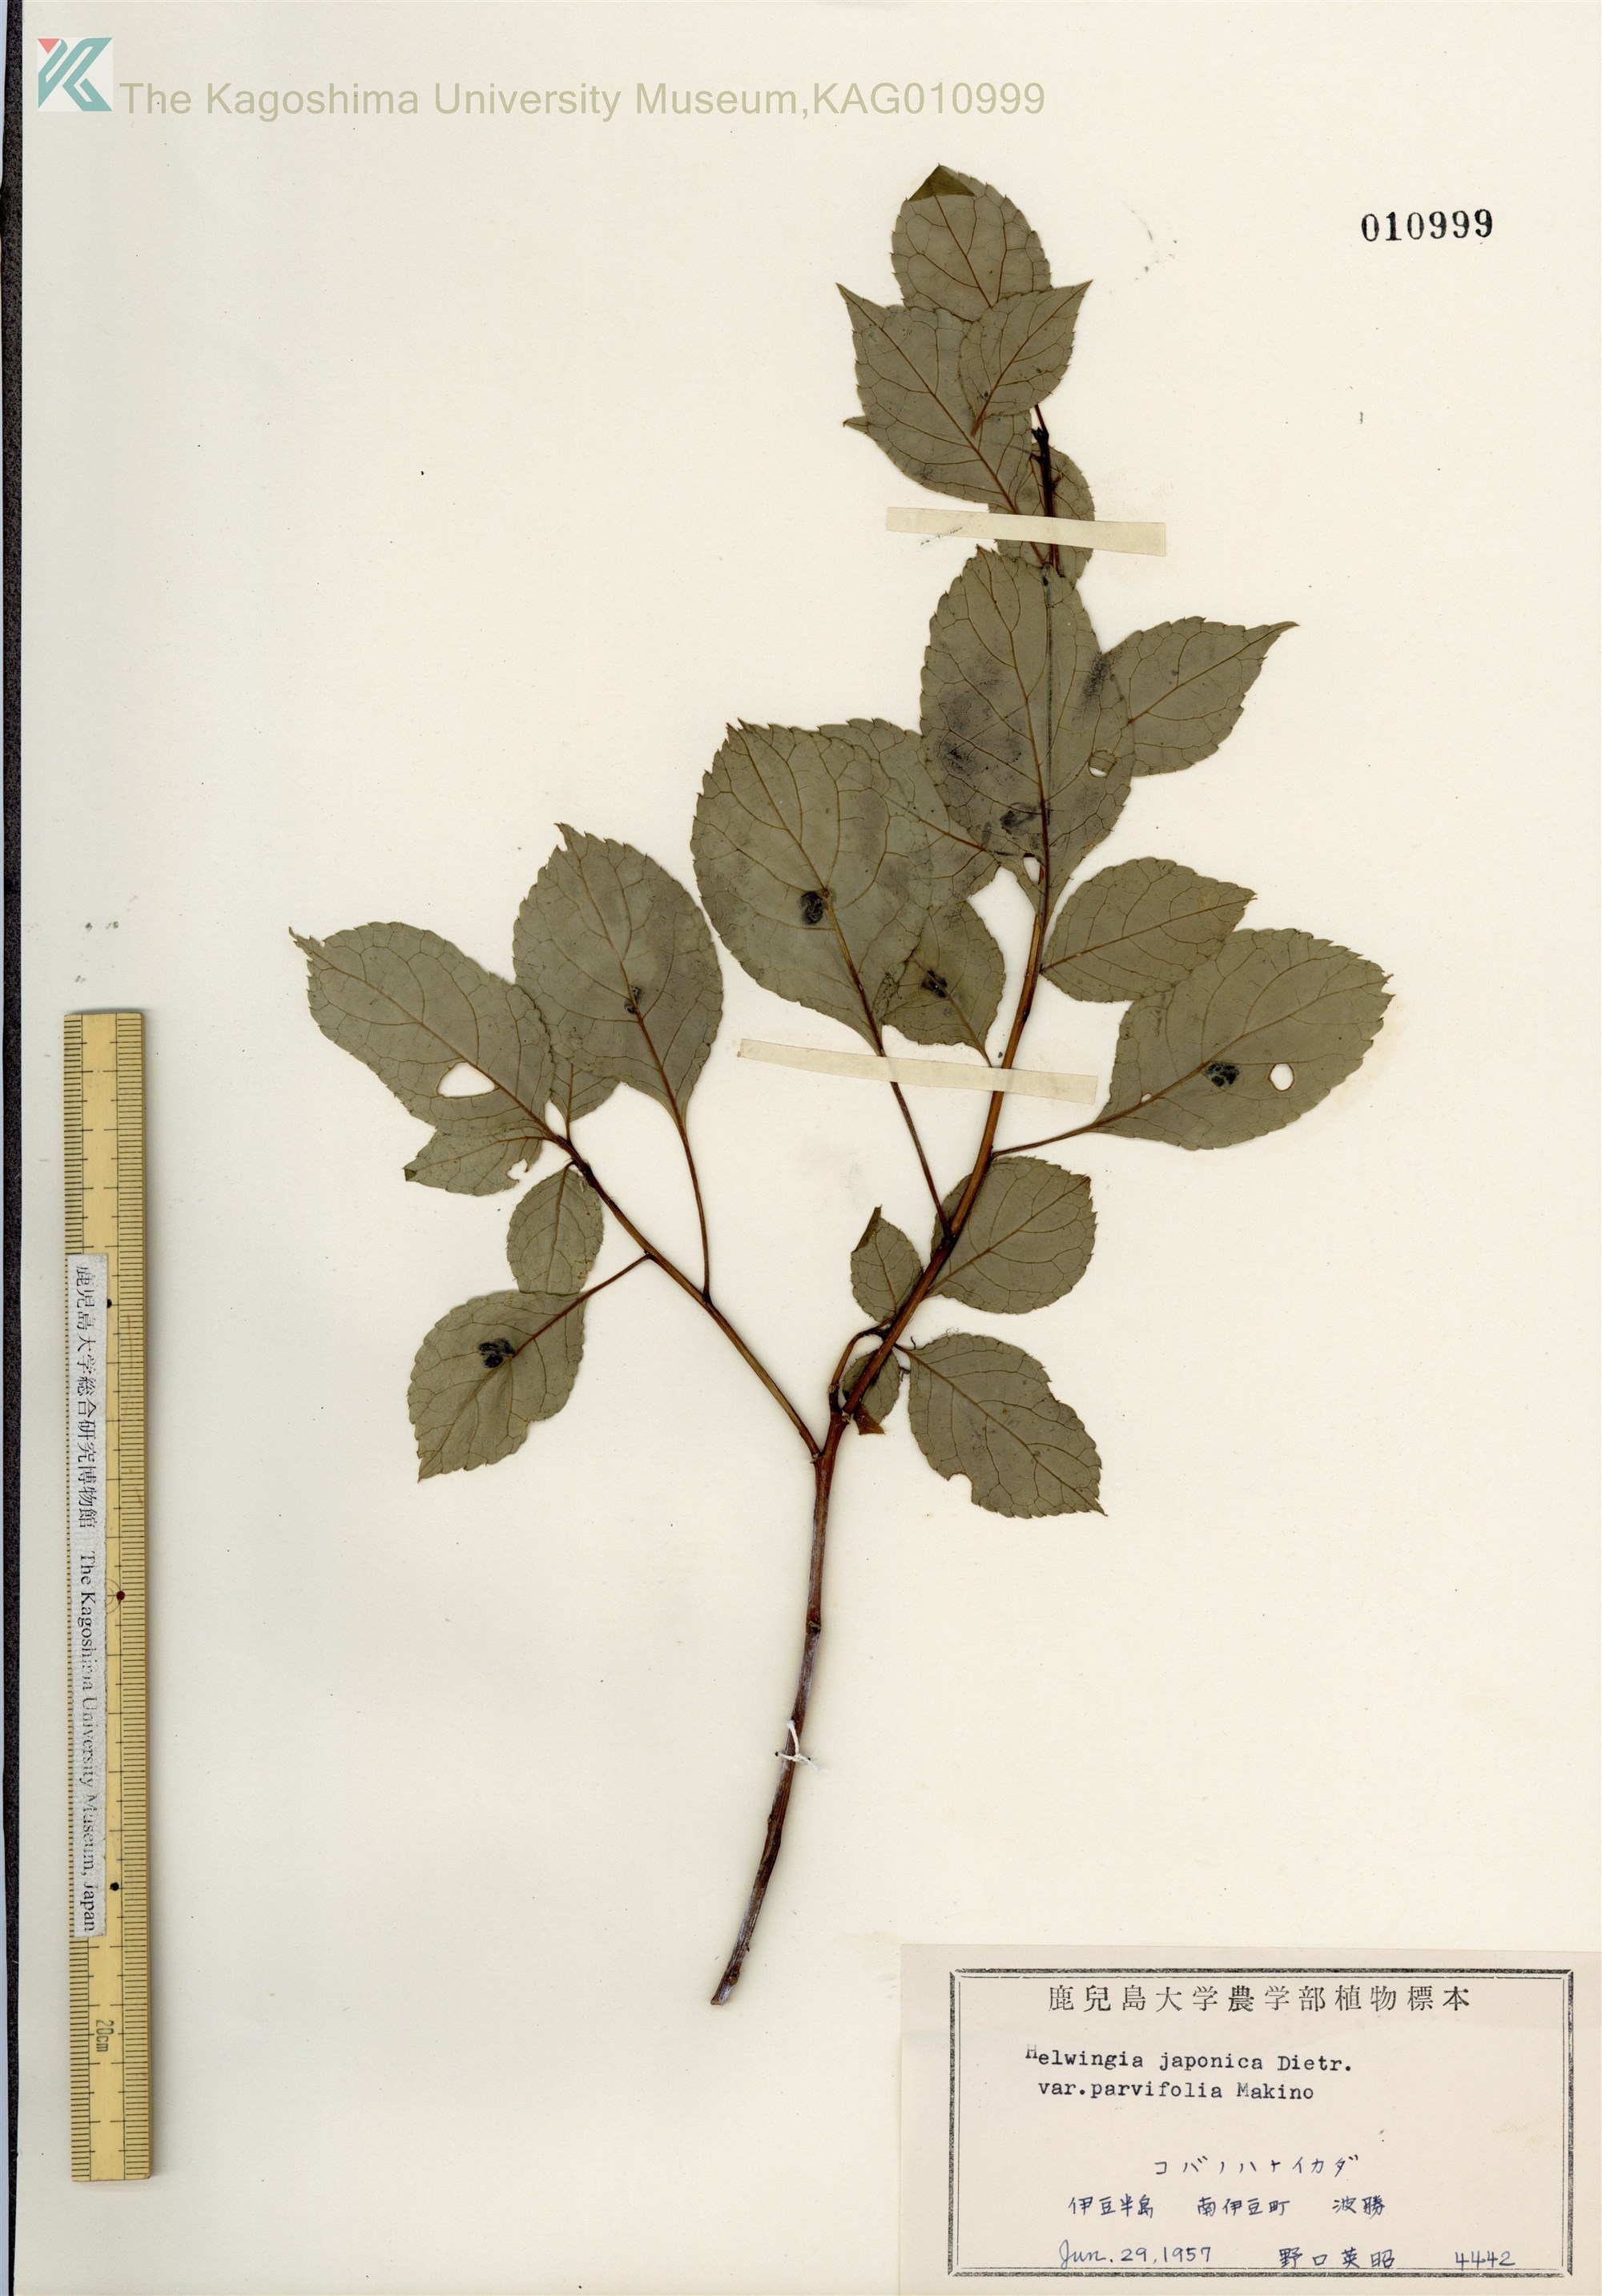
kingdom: Plantae
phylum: Tracheophyta
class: Magnoliopsida
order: Aquifoliales
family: Helwingiaceae
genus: Helwingia
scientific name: Helwingia japonica
